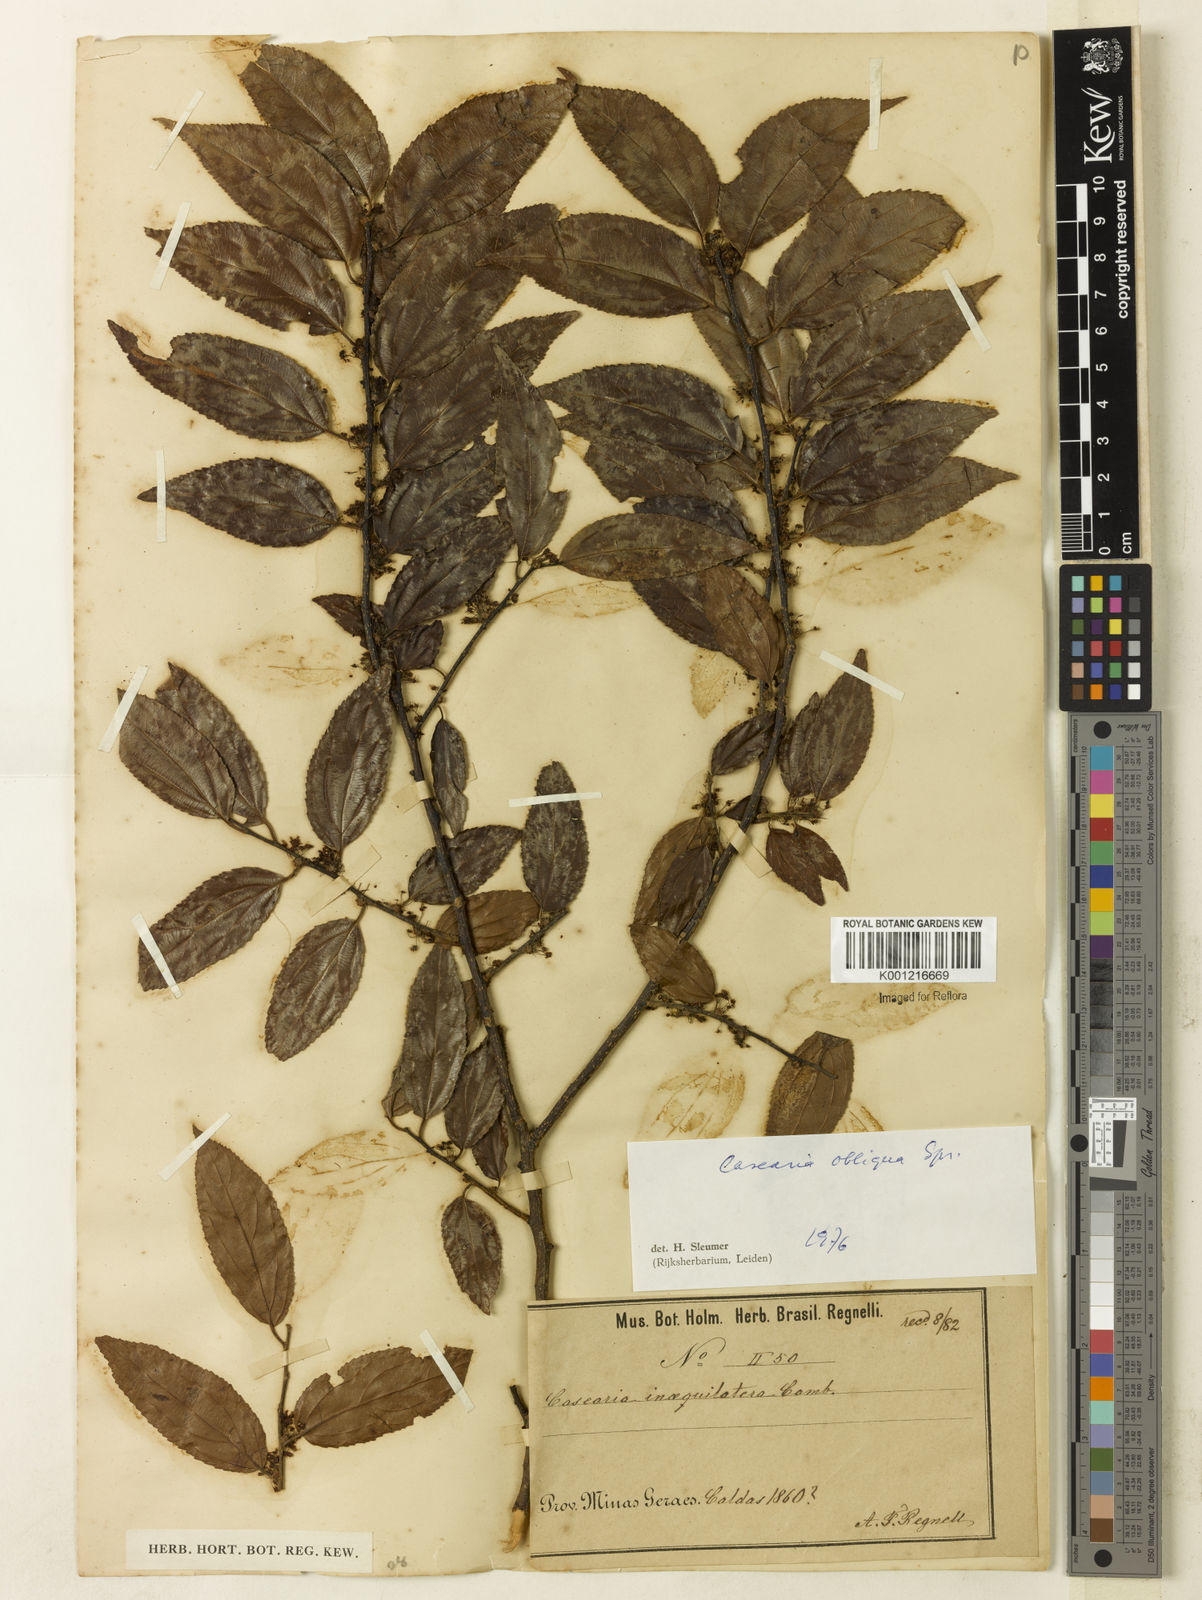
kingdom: Plantae
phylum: Tracheophyta
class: Magnoliopsida
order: Malpighiales
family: Salicaceae
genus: Casearia
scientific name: Casearia obliqua
